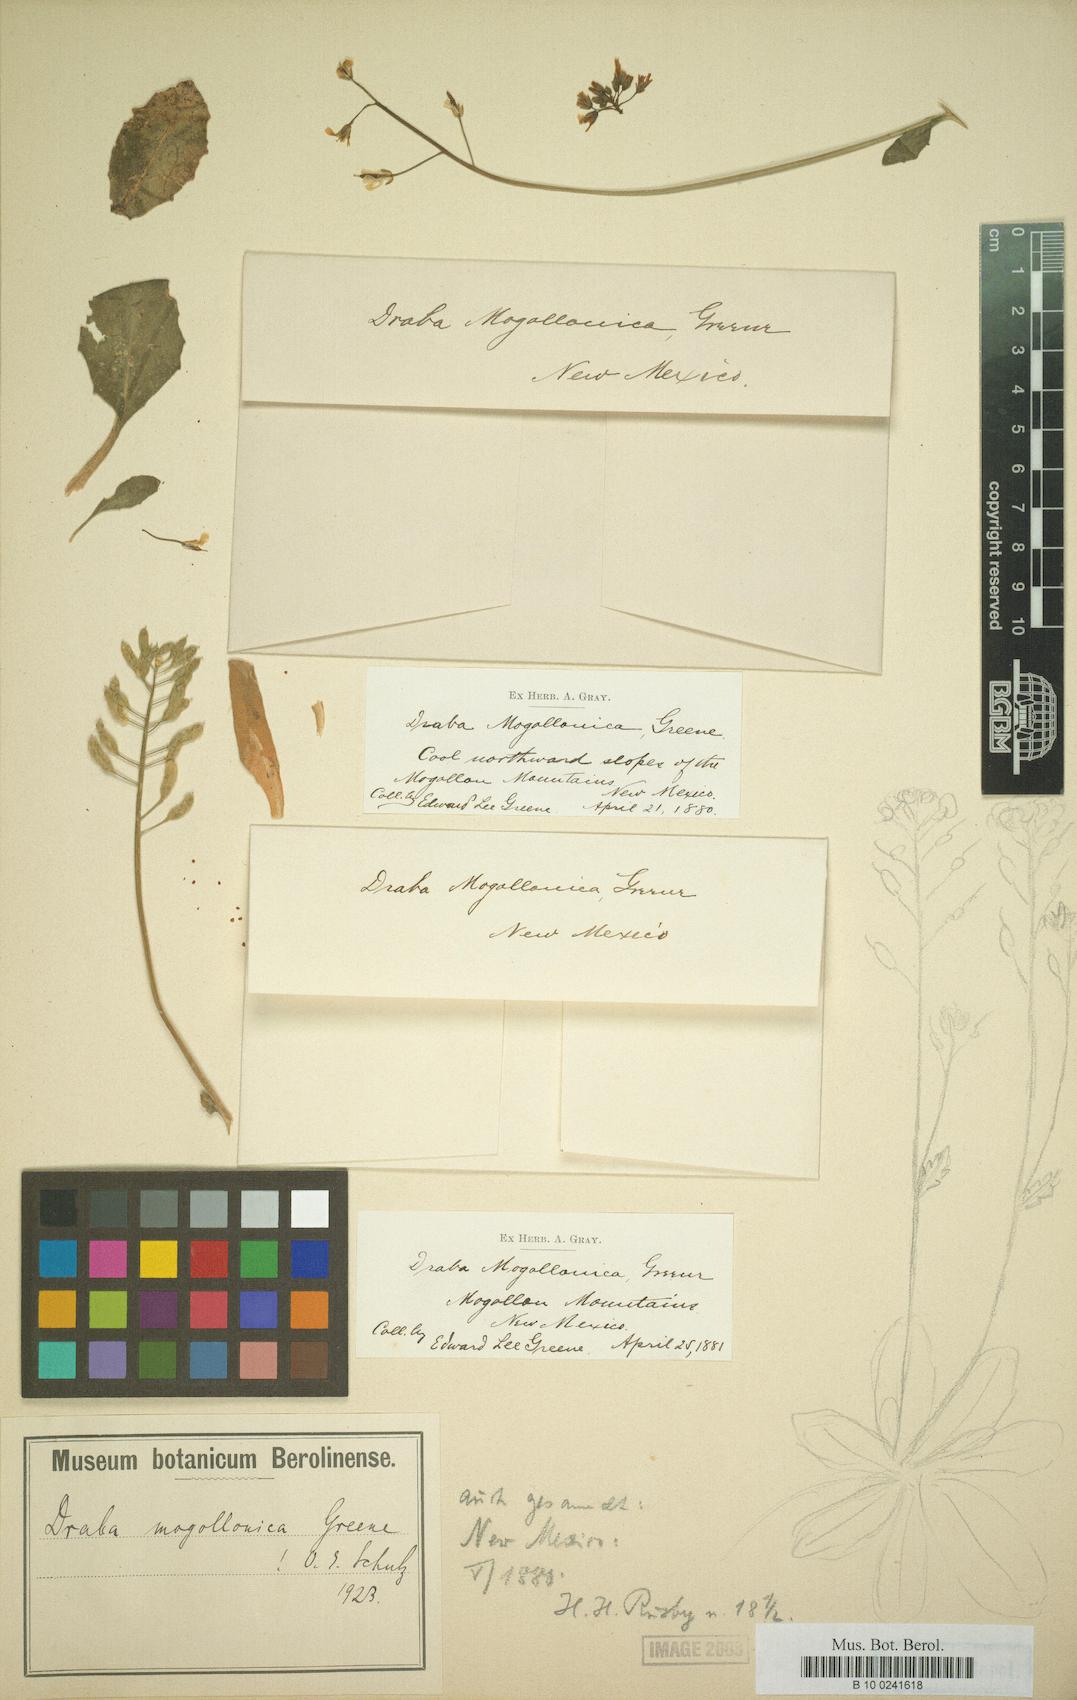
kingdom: Plantae
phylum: Tracheophyta
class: Magnoliopsida
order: Brassicales
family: Brassicaceae
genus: Draba
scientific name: Draba mogollonica
